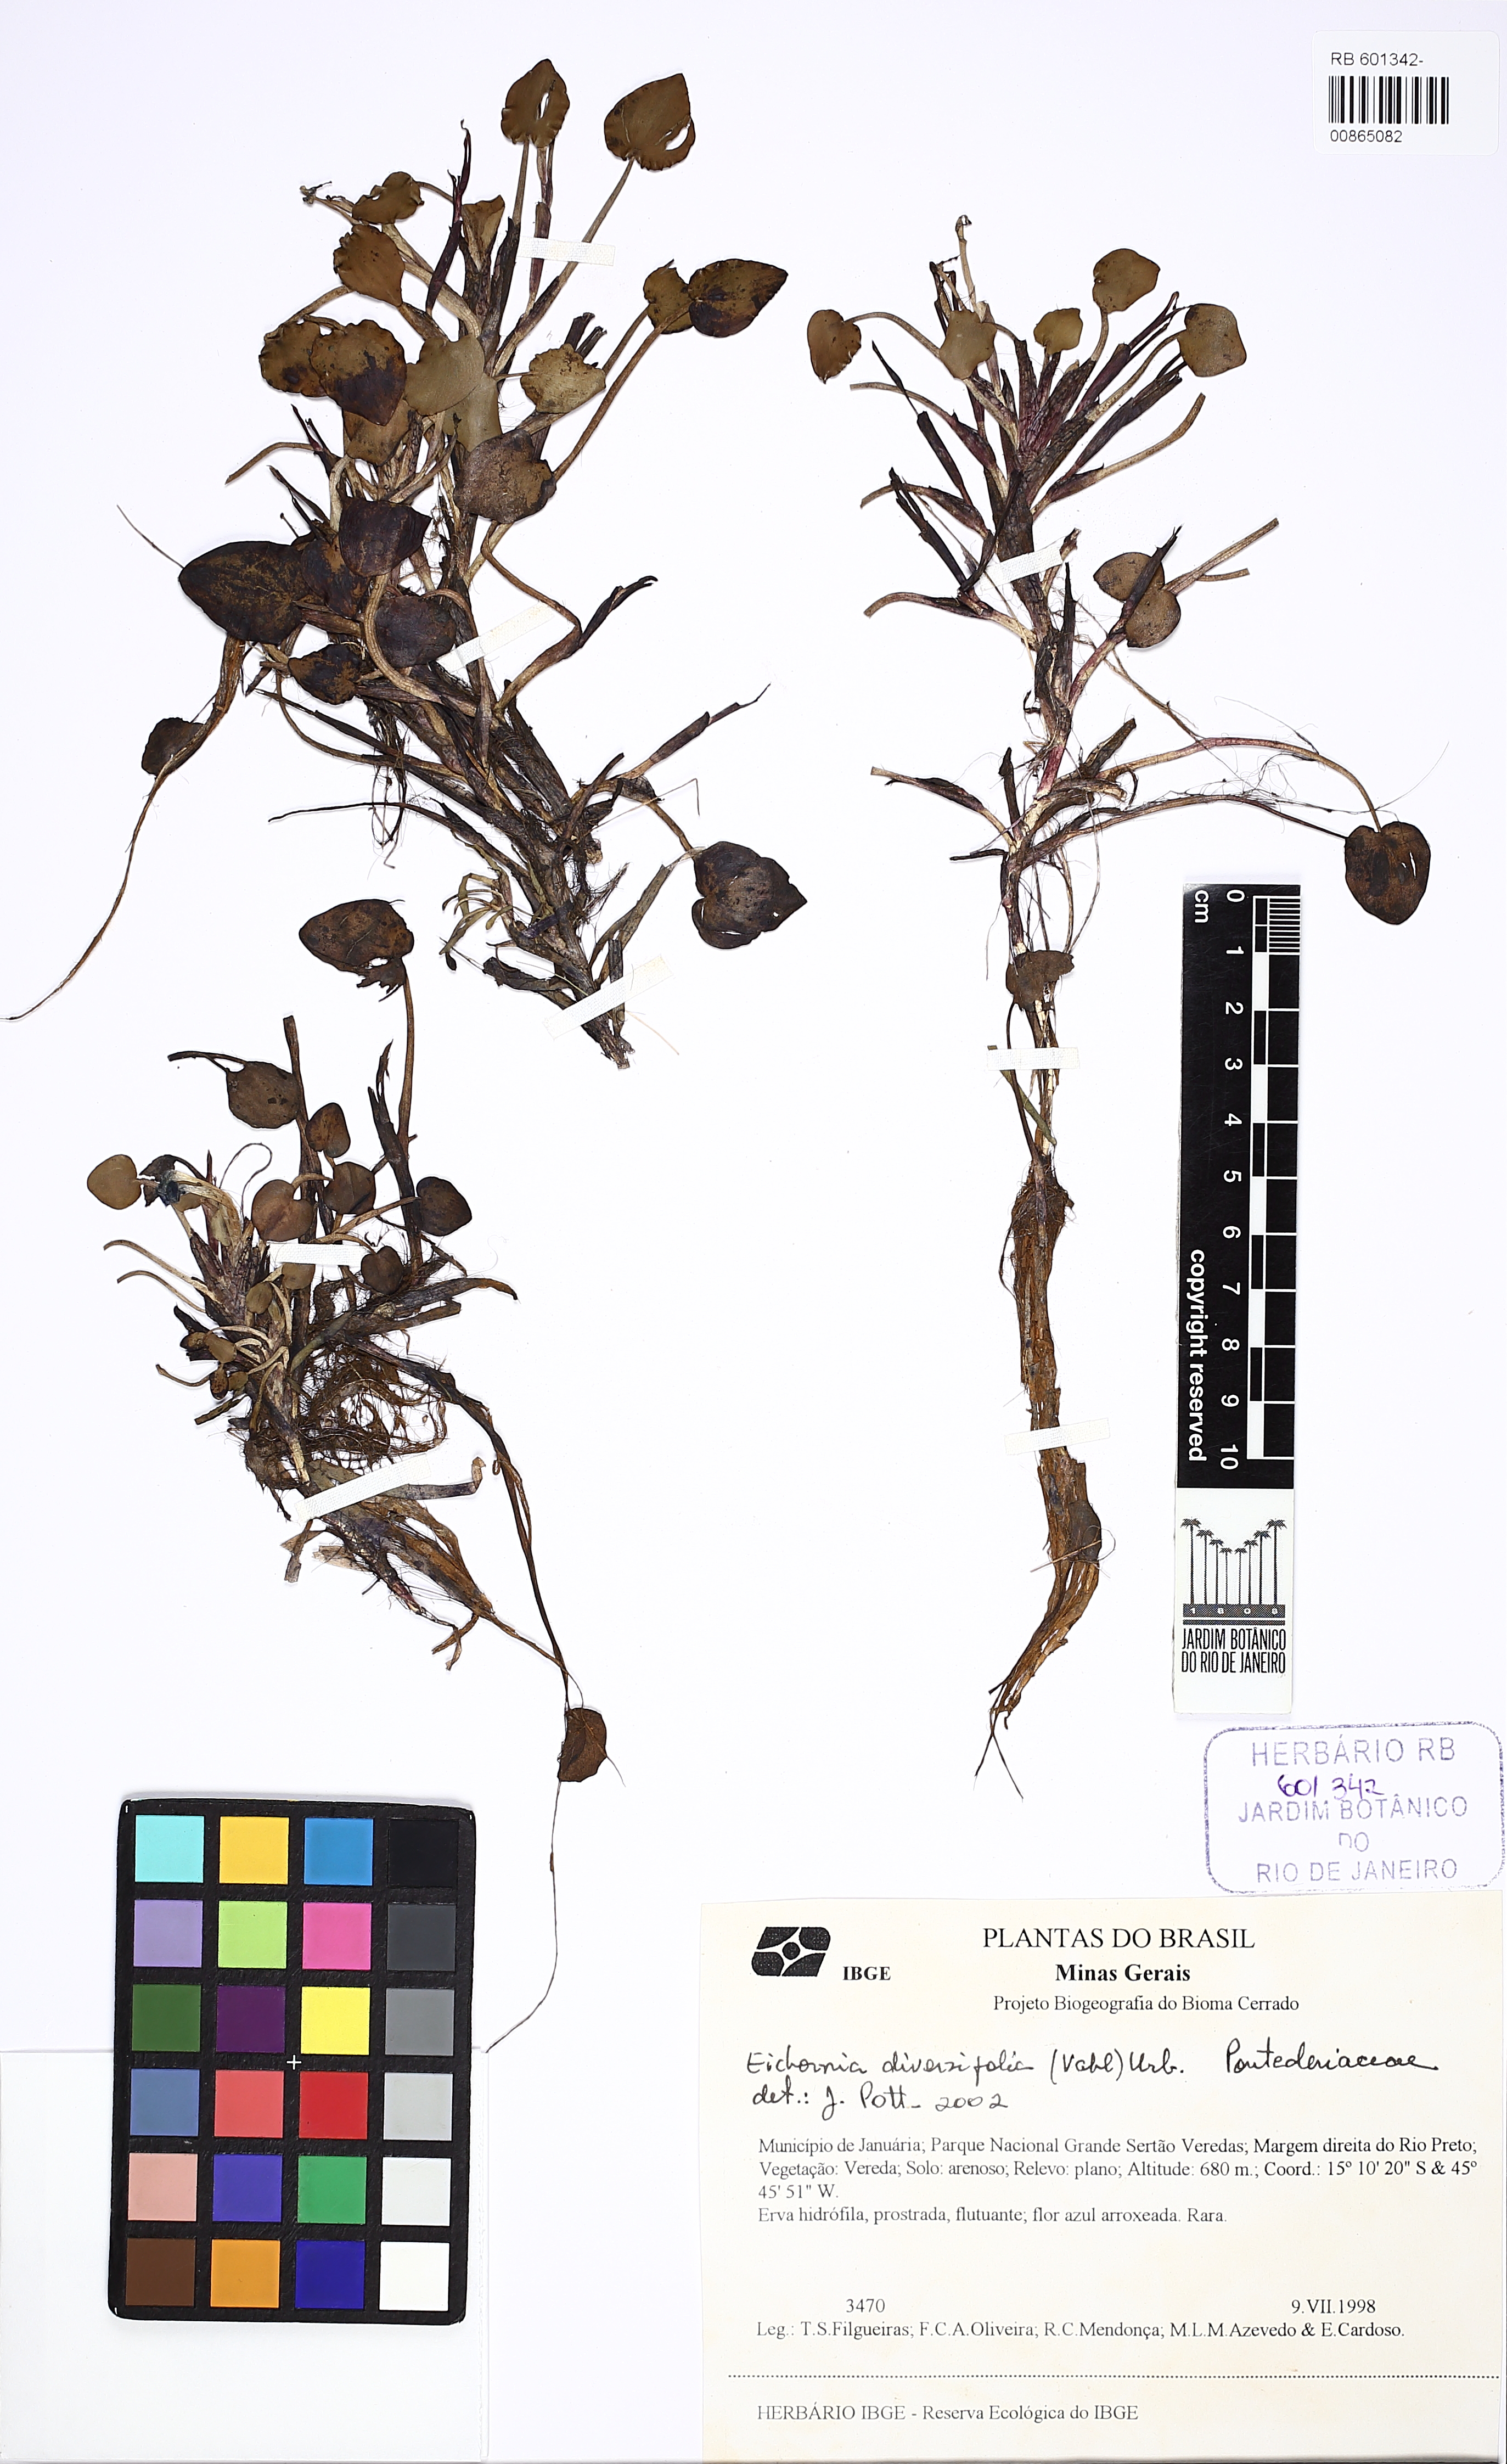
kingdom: Plantae
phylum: Tracheophyta
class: Liliopsida
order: Commelinales
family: Pontederiaceae
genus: Pontederia
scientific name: Pontederia diversifolia
